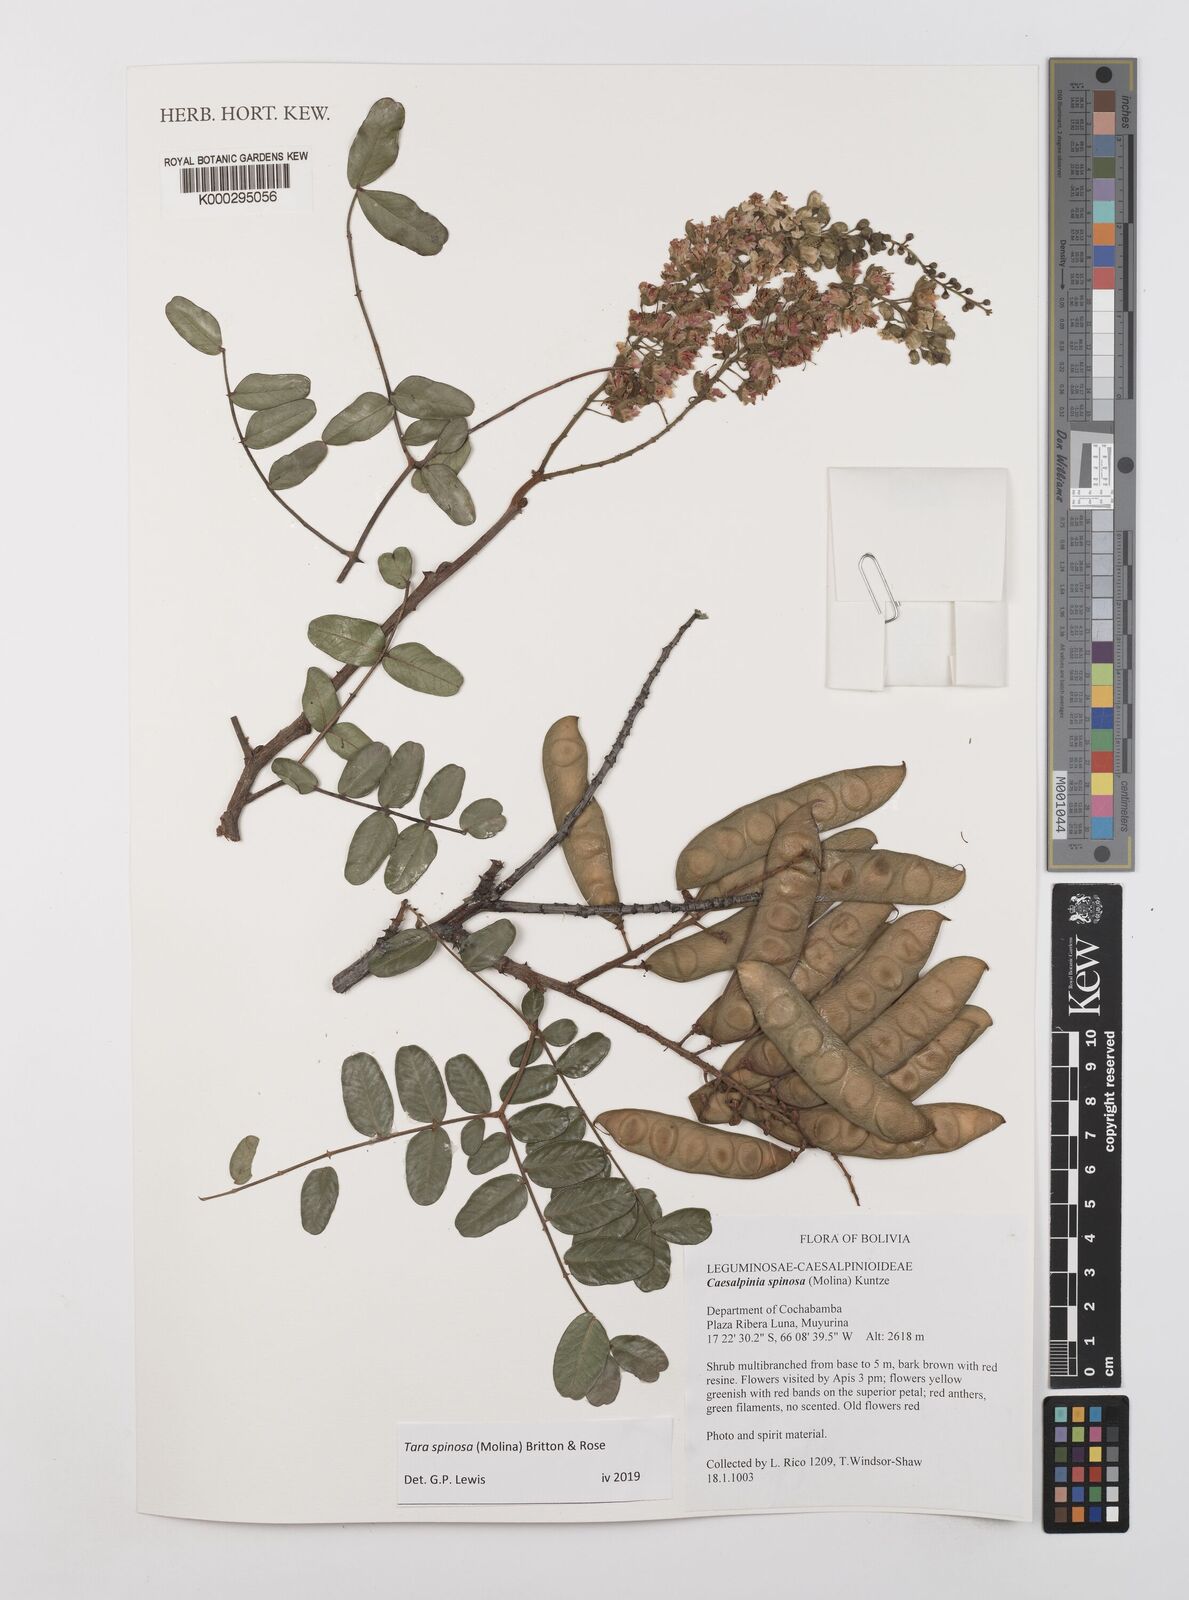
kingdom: Plantae
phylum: Tracheophyta
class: Magnoliopsida
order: Fabales
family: Fabaceae
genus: Tara
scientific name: Tara spinosa
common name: Spiny holdback
